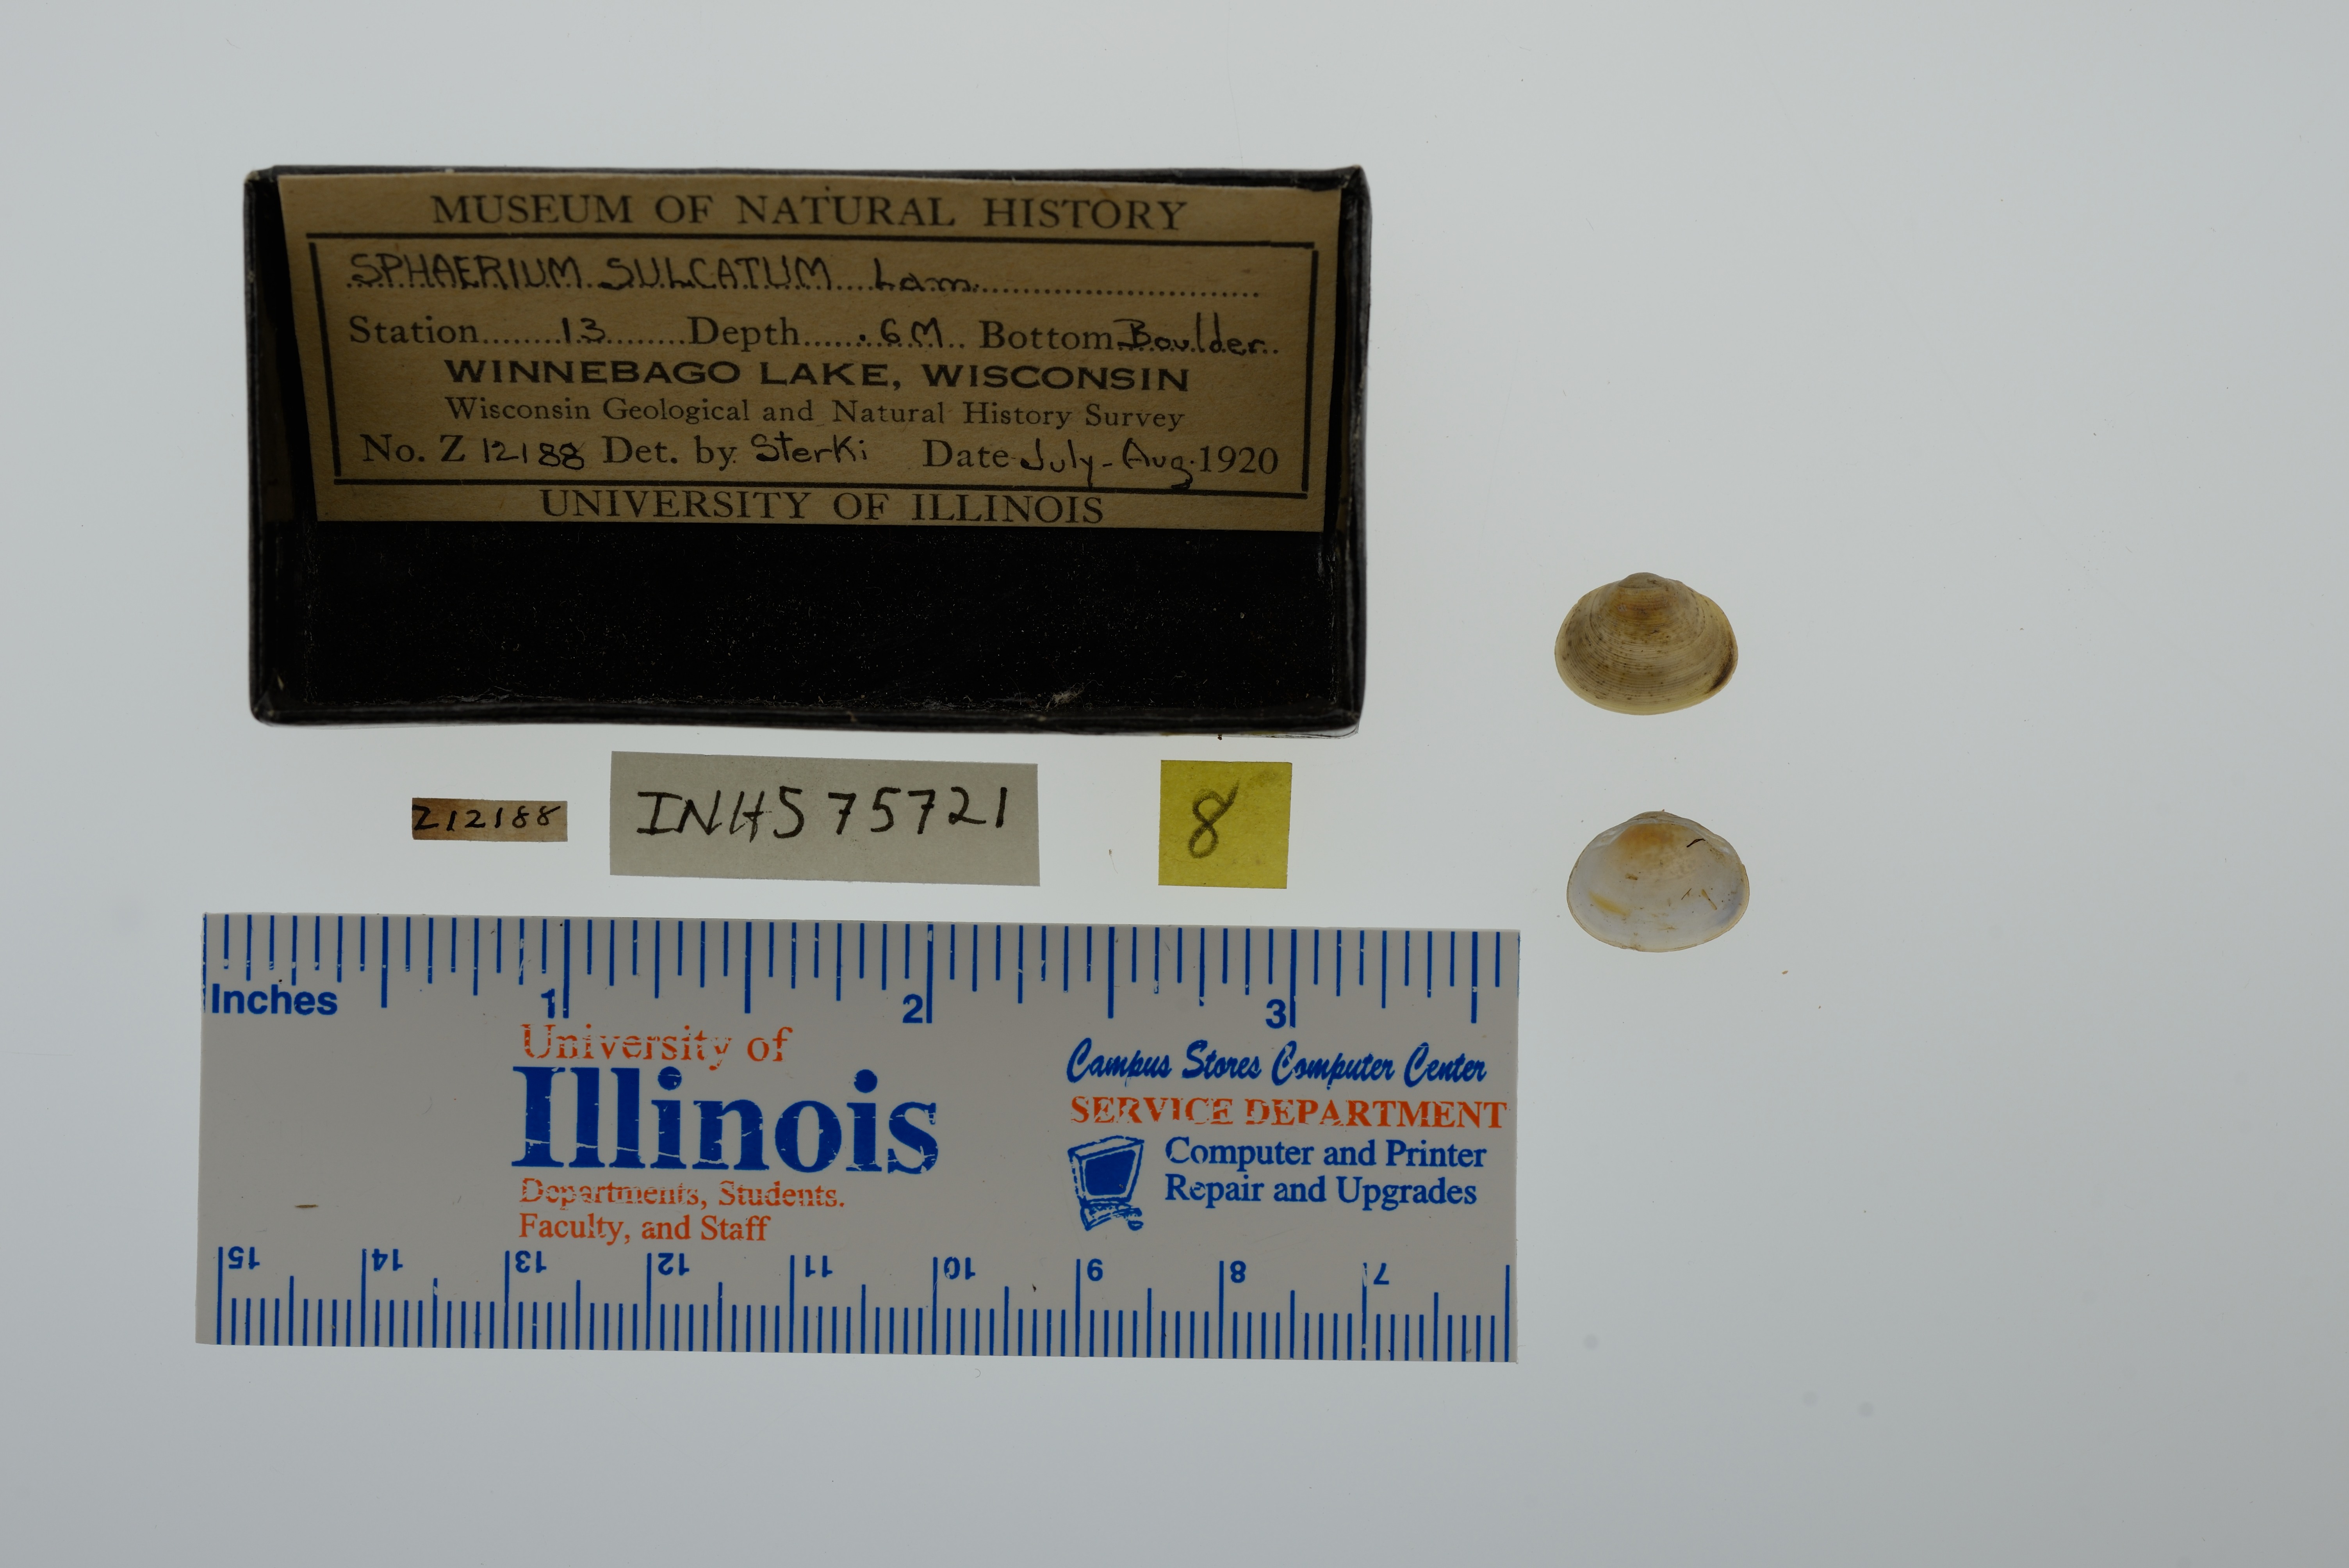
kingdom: Animalia
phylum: Mollusca
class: Bivalvia
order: Sphaeriida
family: Sphaeriidae
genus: Sphaerium
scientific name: Sphaerium simile
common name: Grooved fingernailclam
